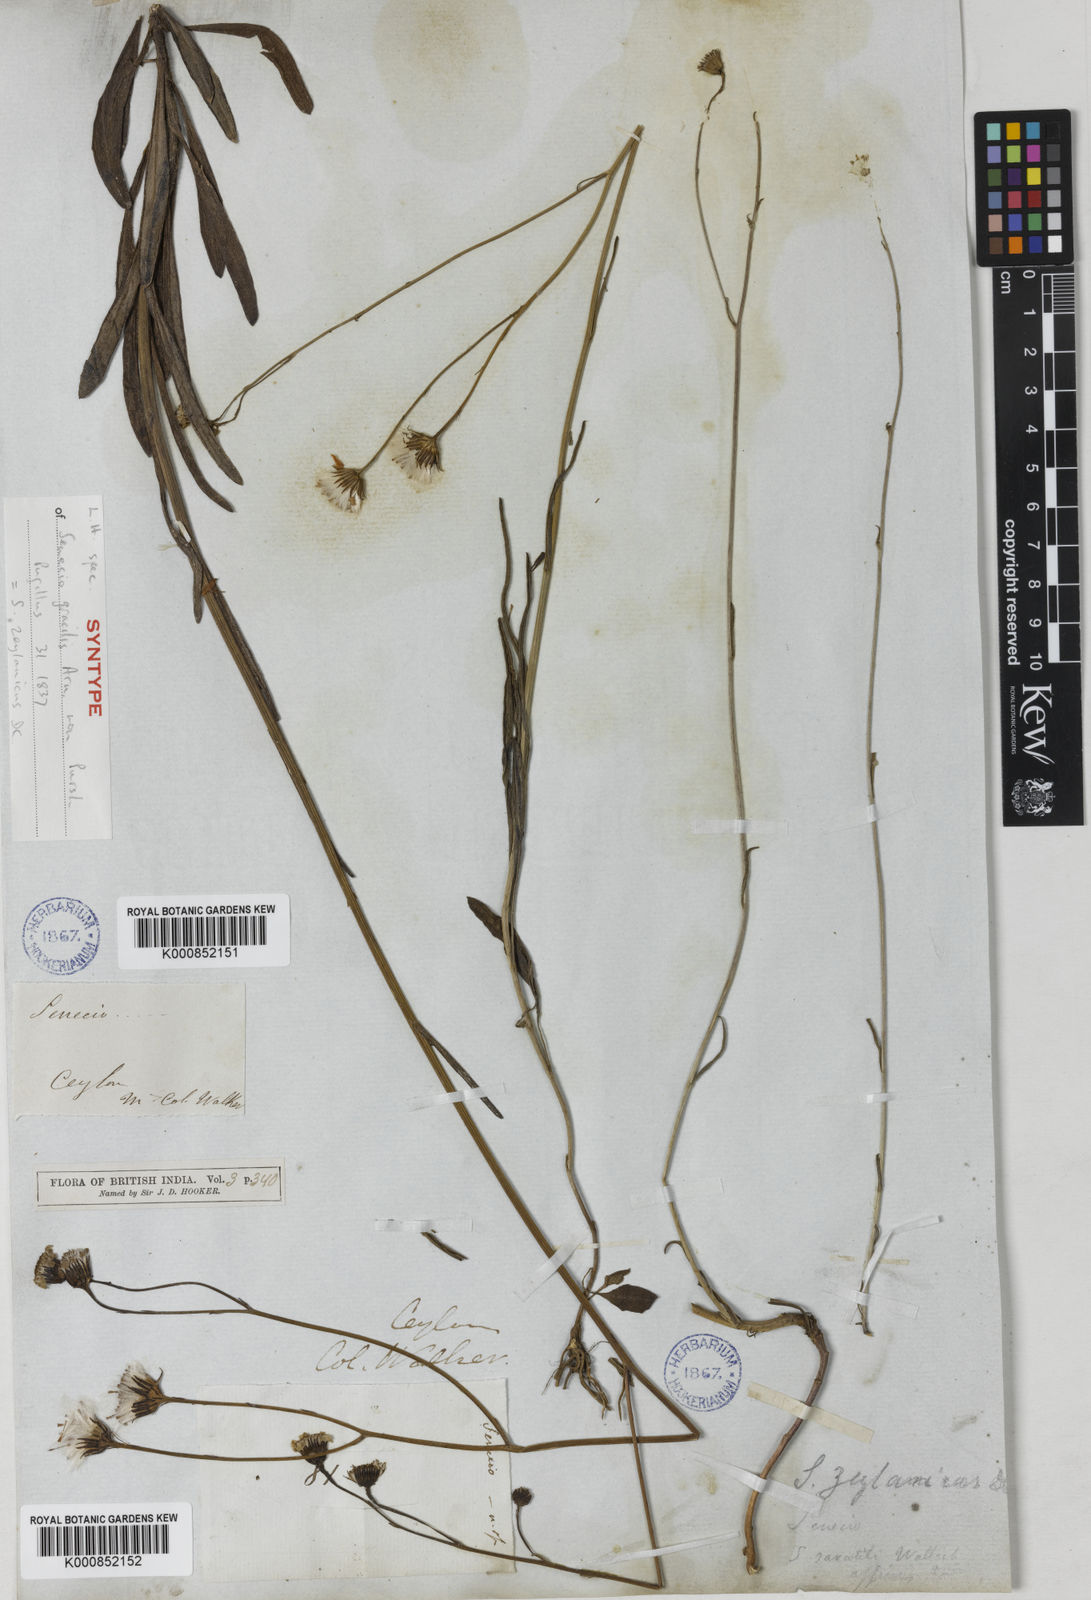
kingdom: Plantae
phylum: Tracheophyta
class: Magnoliopsida
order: Asterales
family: Asteraceae
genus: Senecio
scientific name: Senecio zeylanicus
